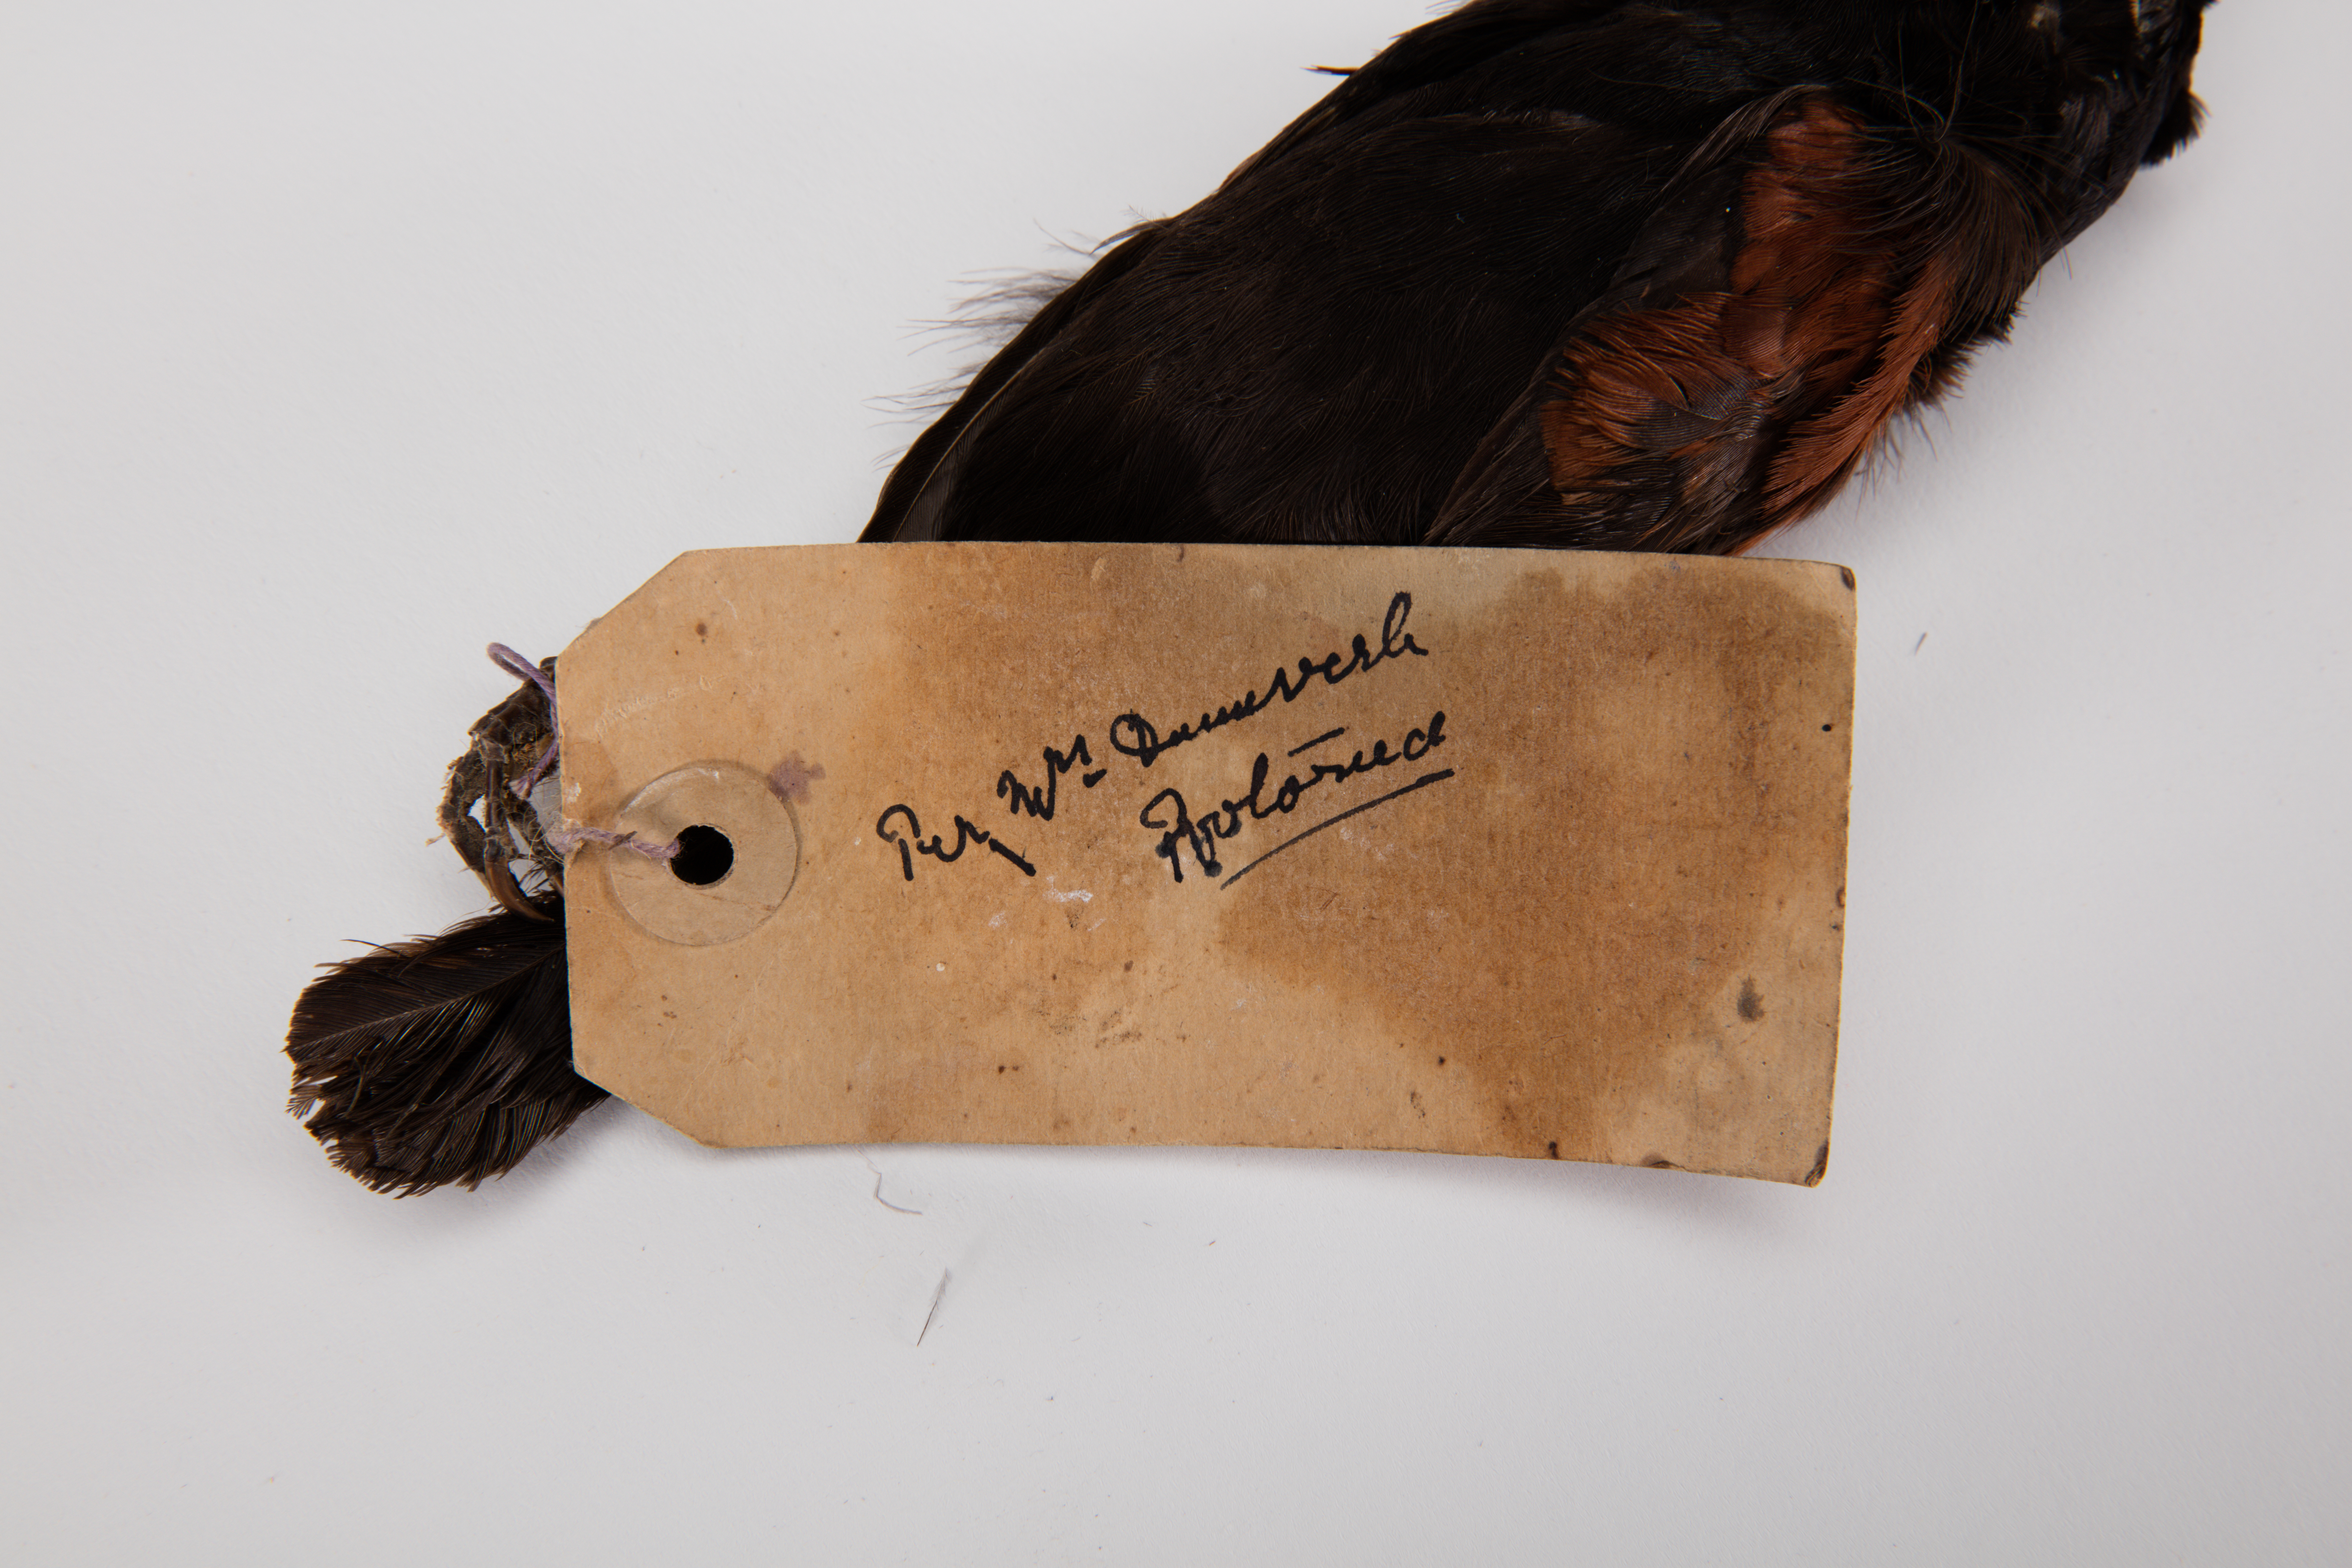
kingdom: Animalia
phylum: Chordata
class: Aves
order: Passeriformes
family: Callaeatidae
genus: Philesturnus
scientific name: Philesturnus carunculatus
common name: South island saddleback
